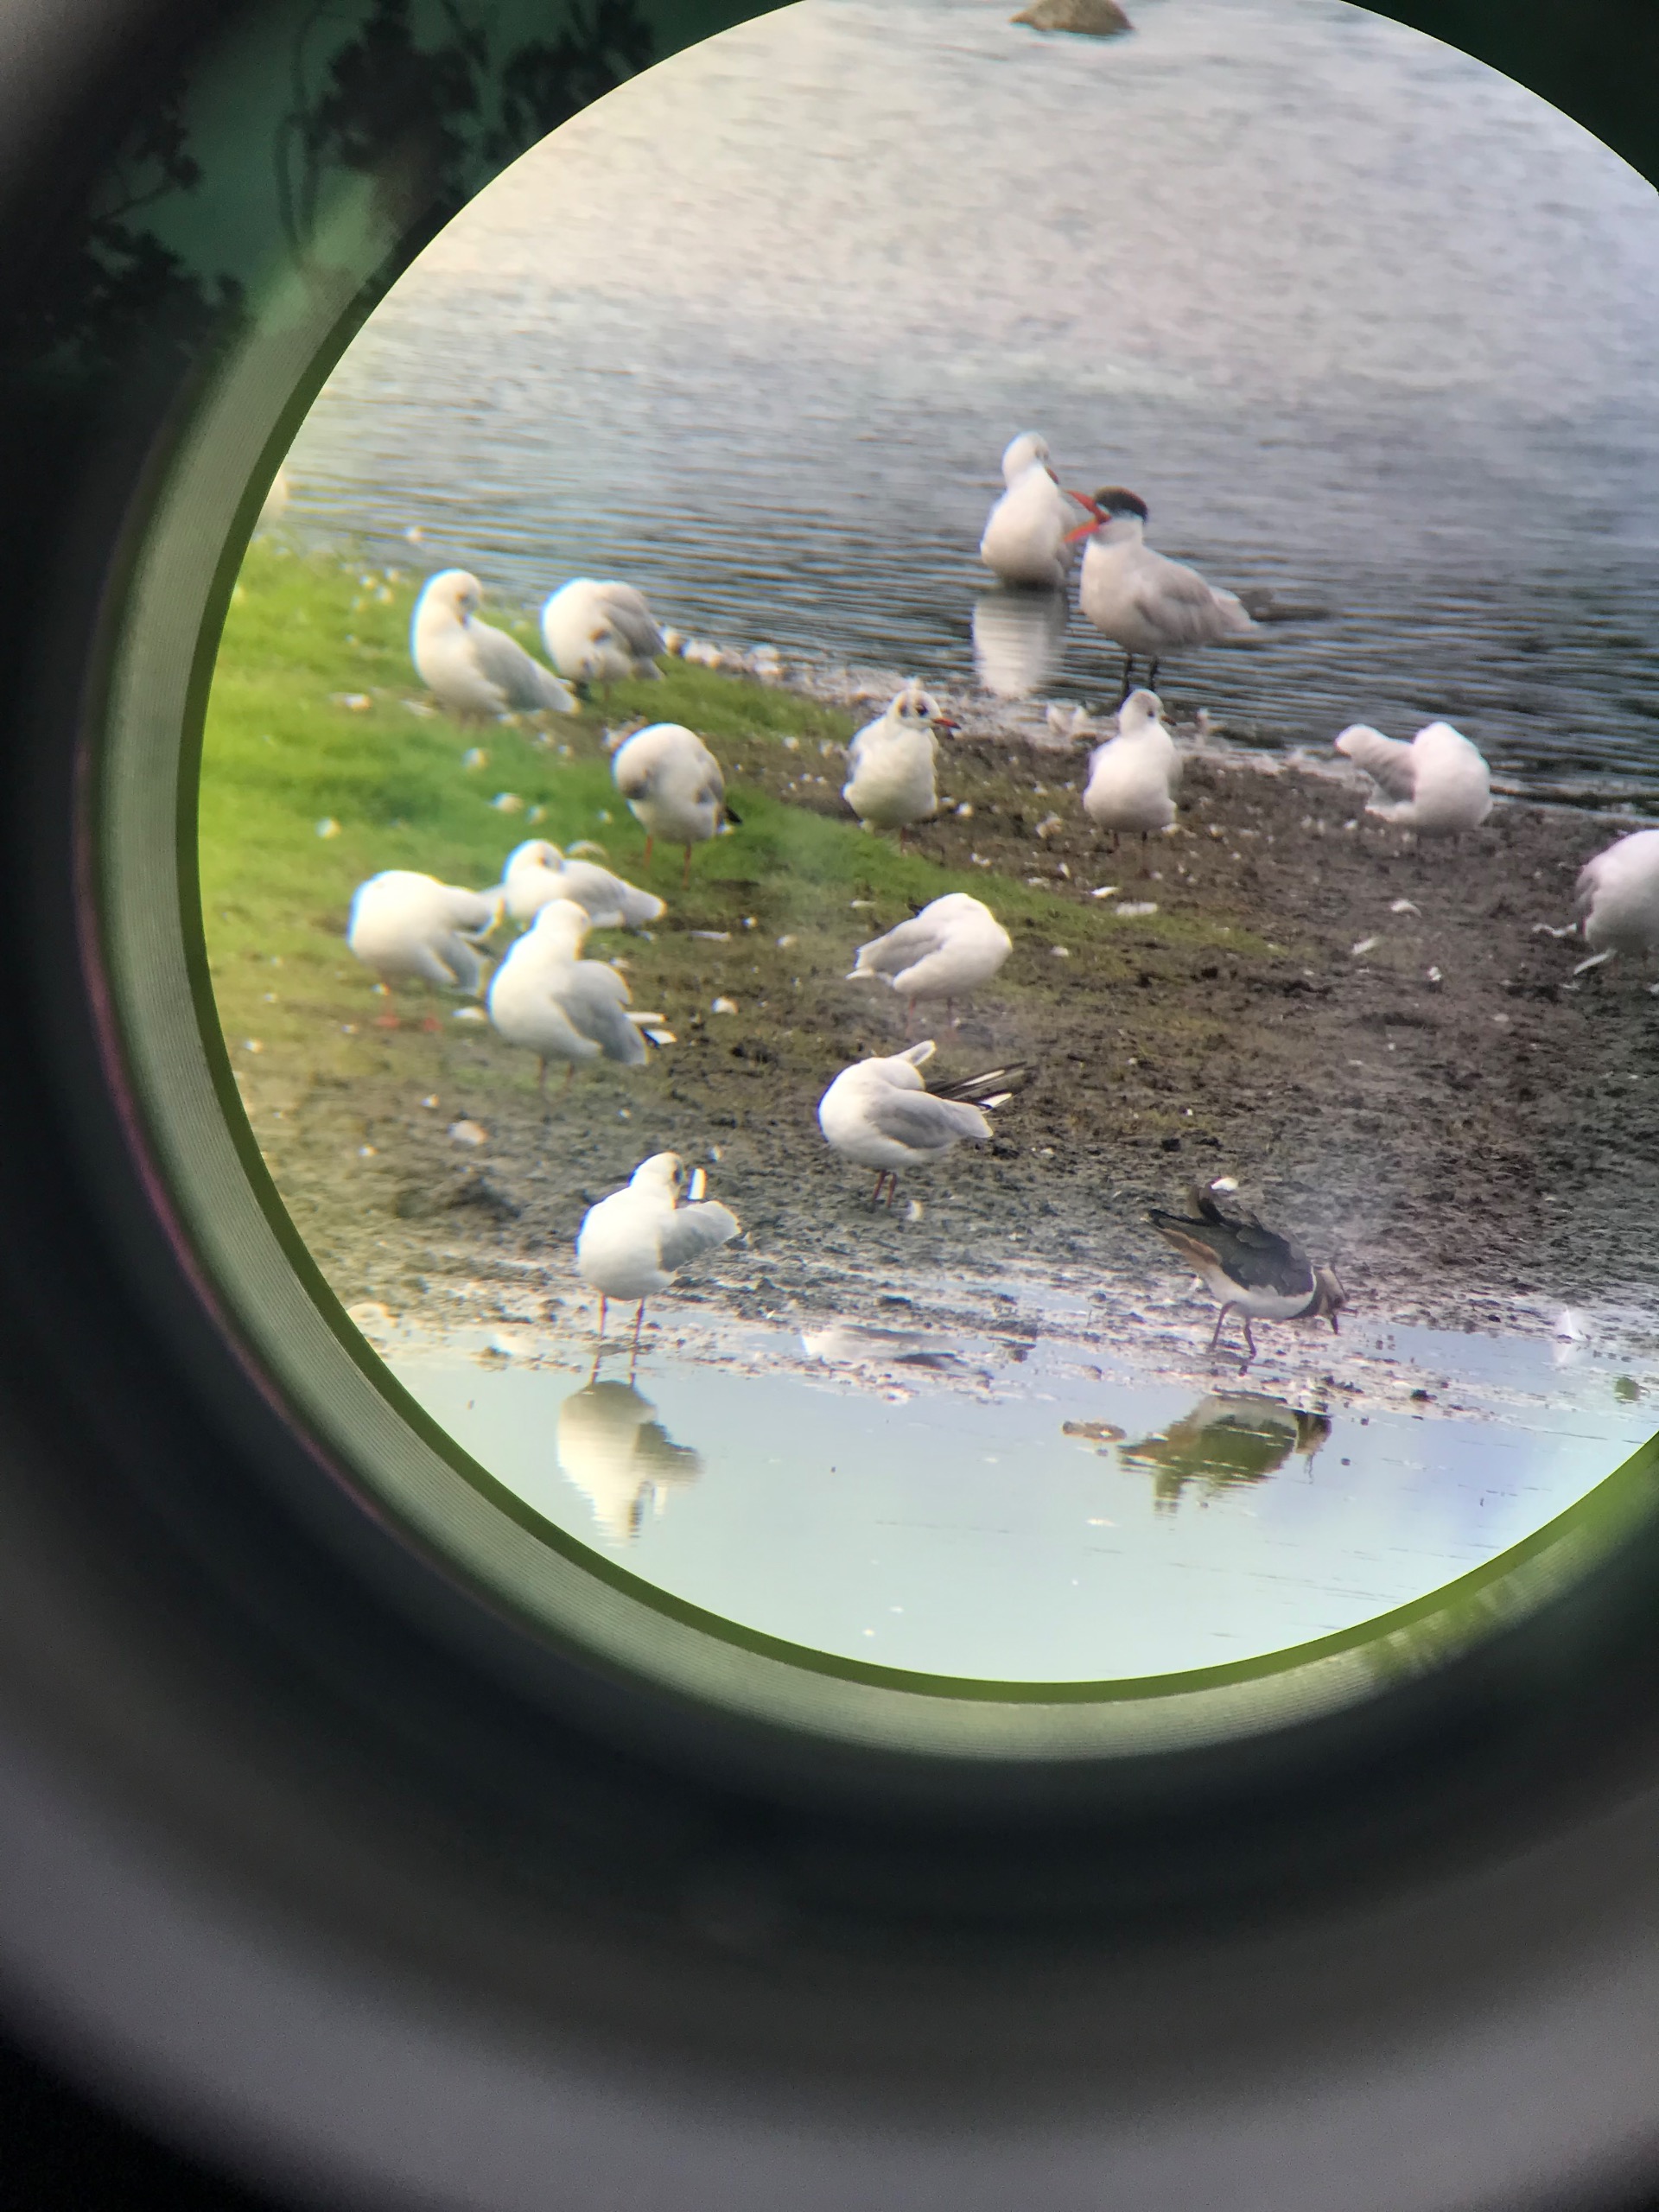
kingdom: Animalia
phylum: Chordata
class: Aves
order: Charadriiformes
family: Laridae
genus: Chroicocephalus
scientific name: Chroicocephalus ridibundus
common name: Hættemåge
